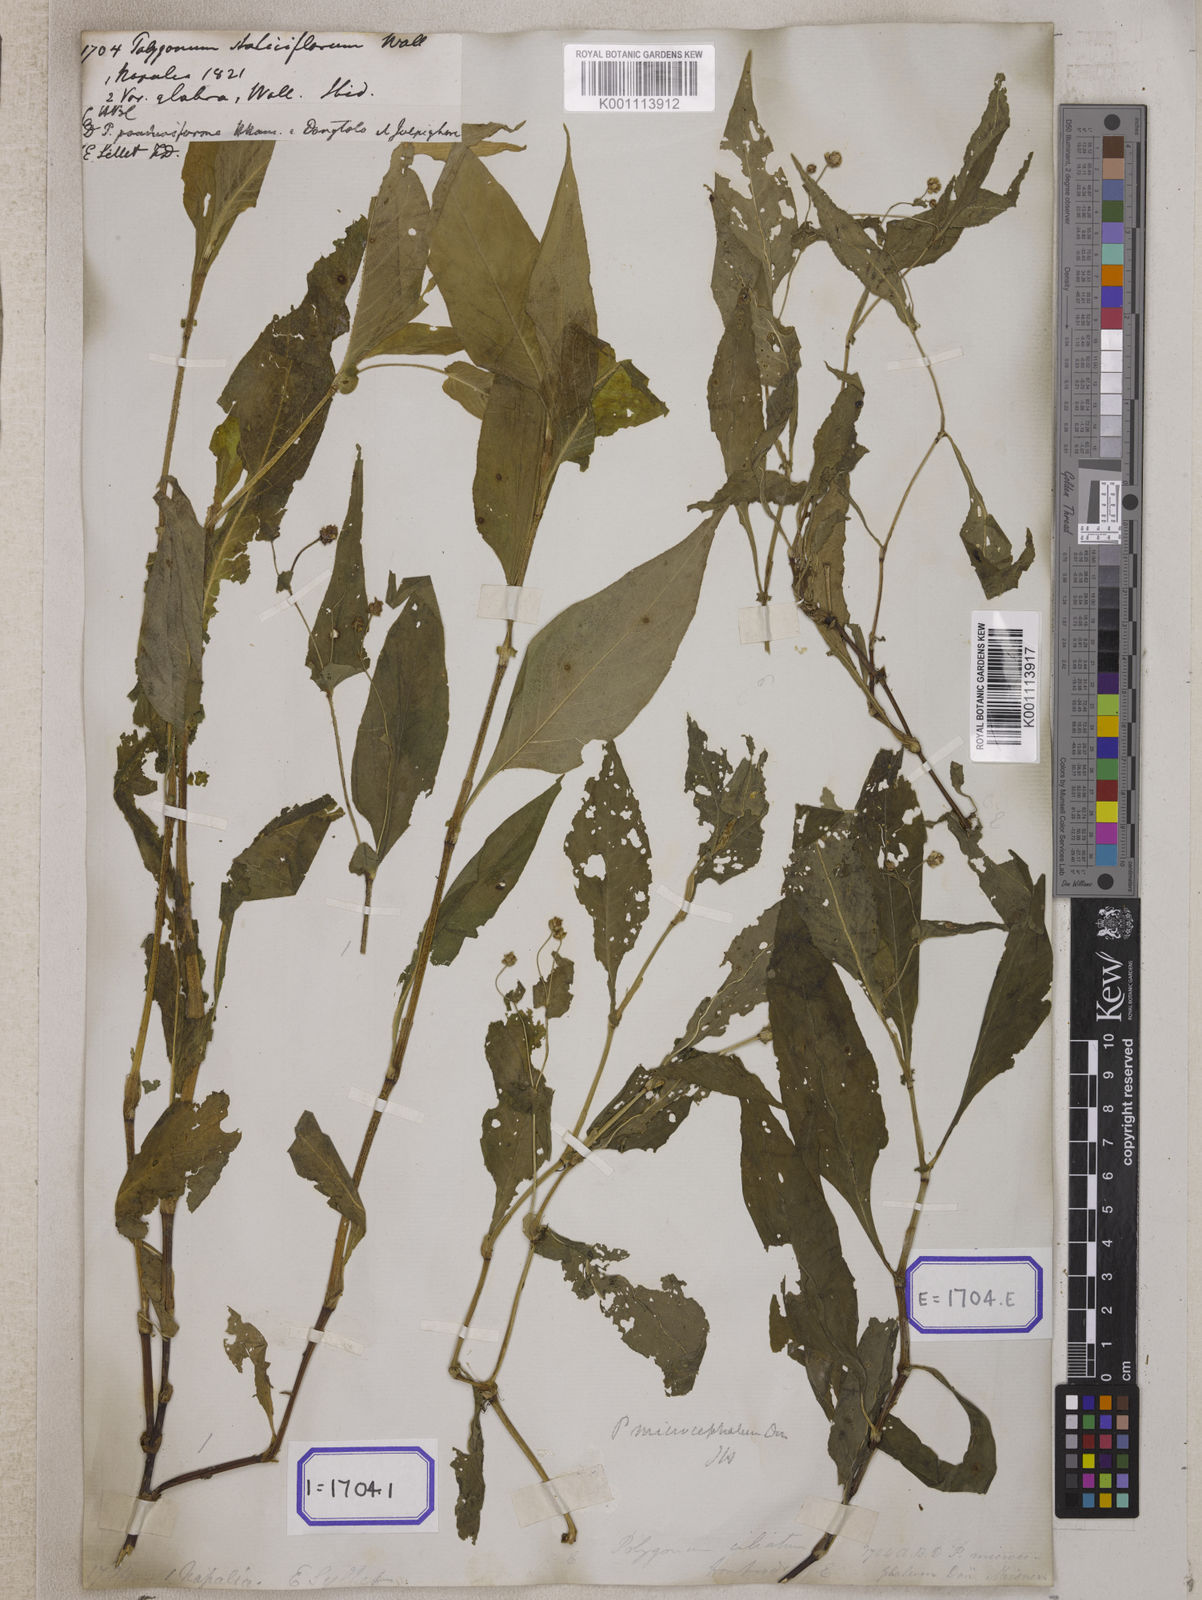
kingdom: Plantae
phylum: Tracheophyta
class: Magnoliopsida
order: Caryophyllales
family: Polygonaceae
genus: Persicaria
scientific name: Persicaria microcephala
